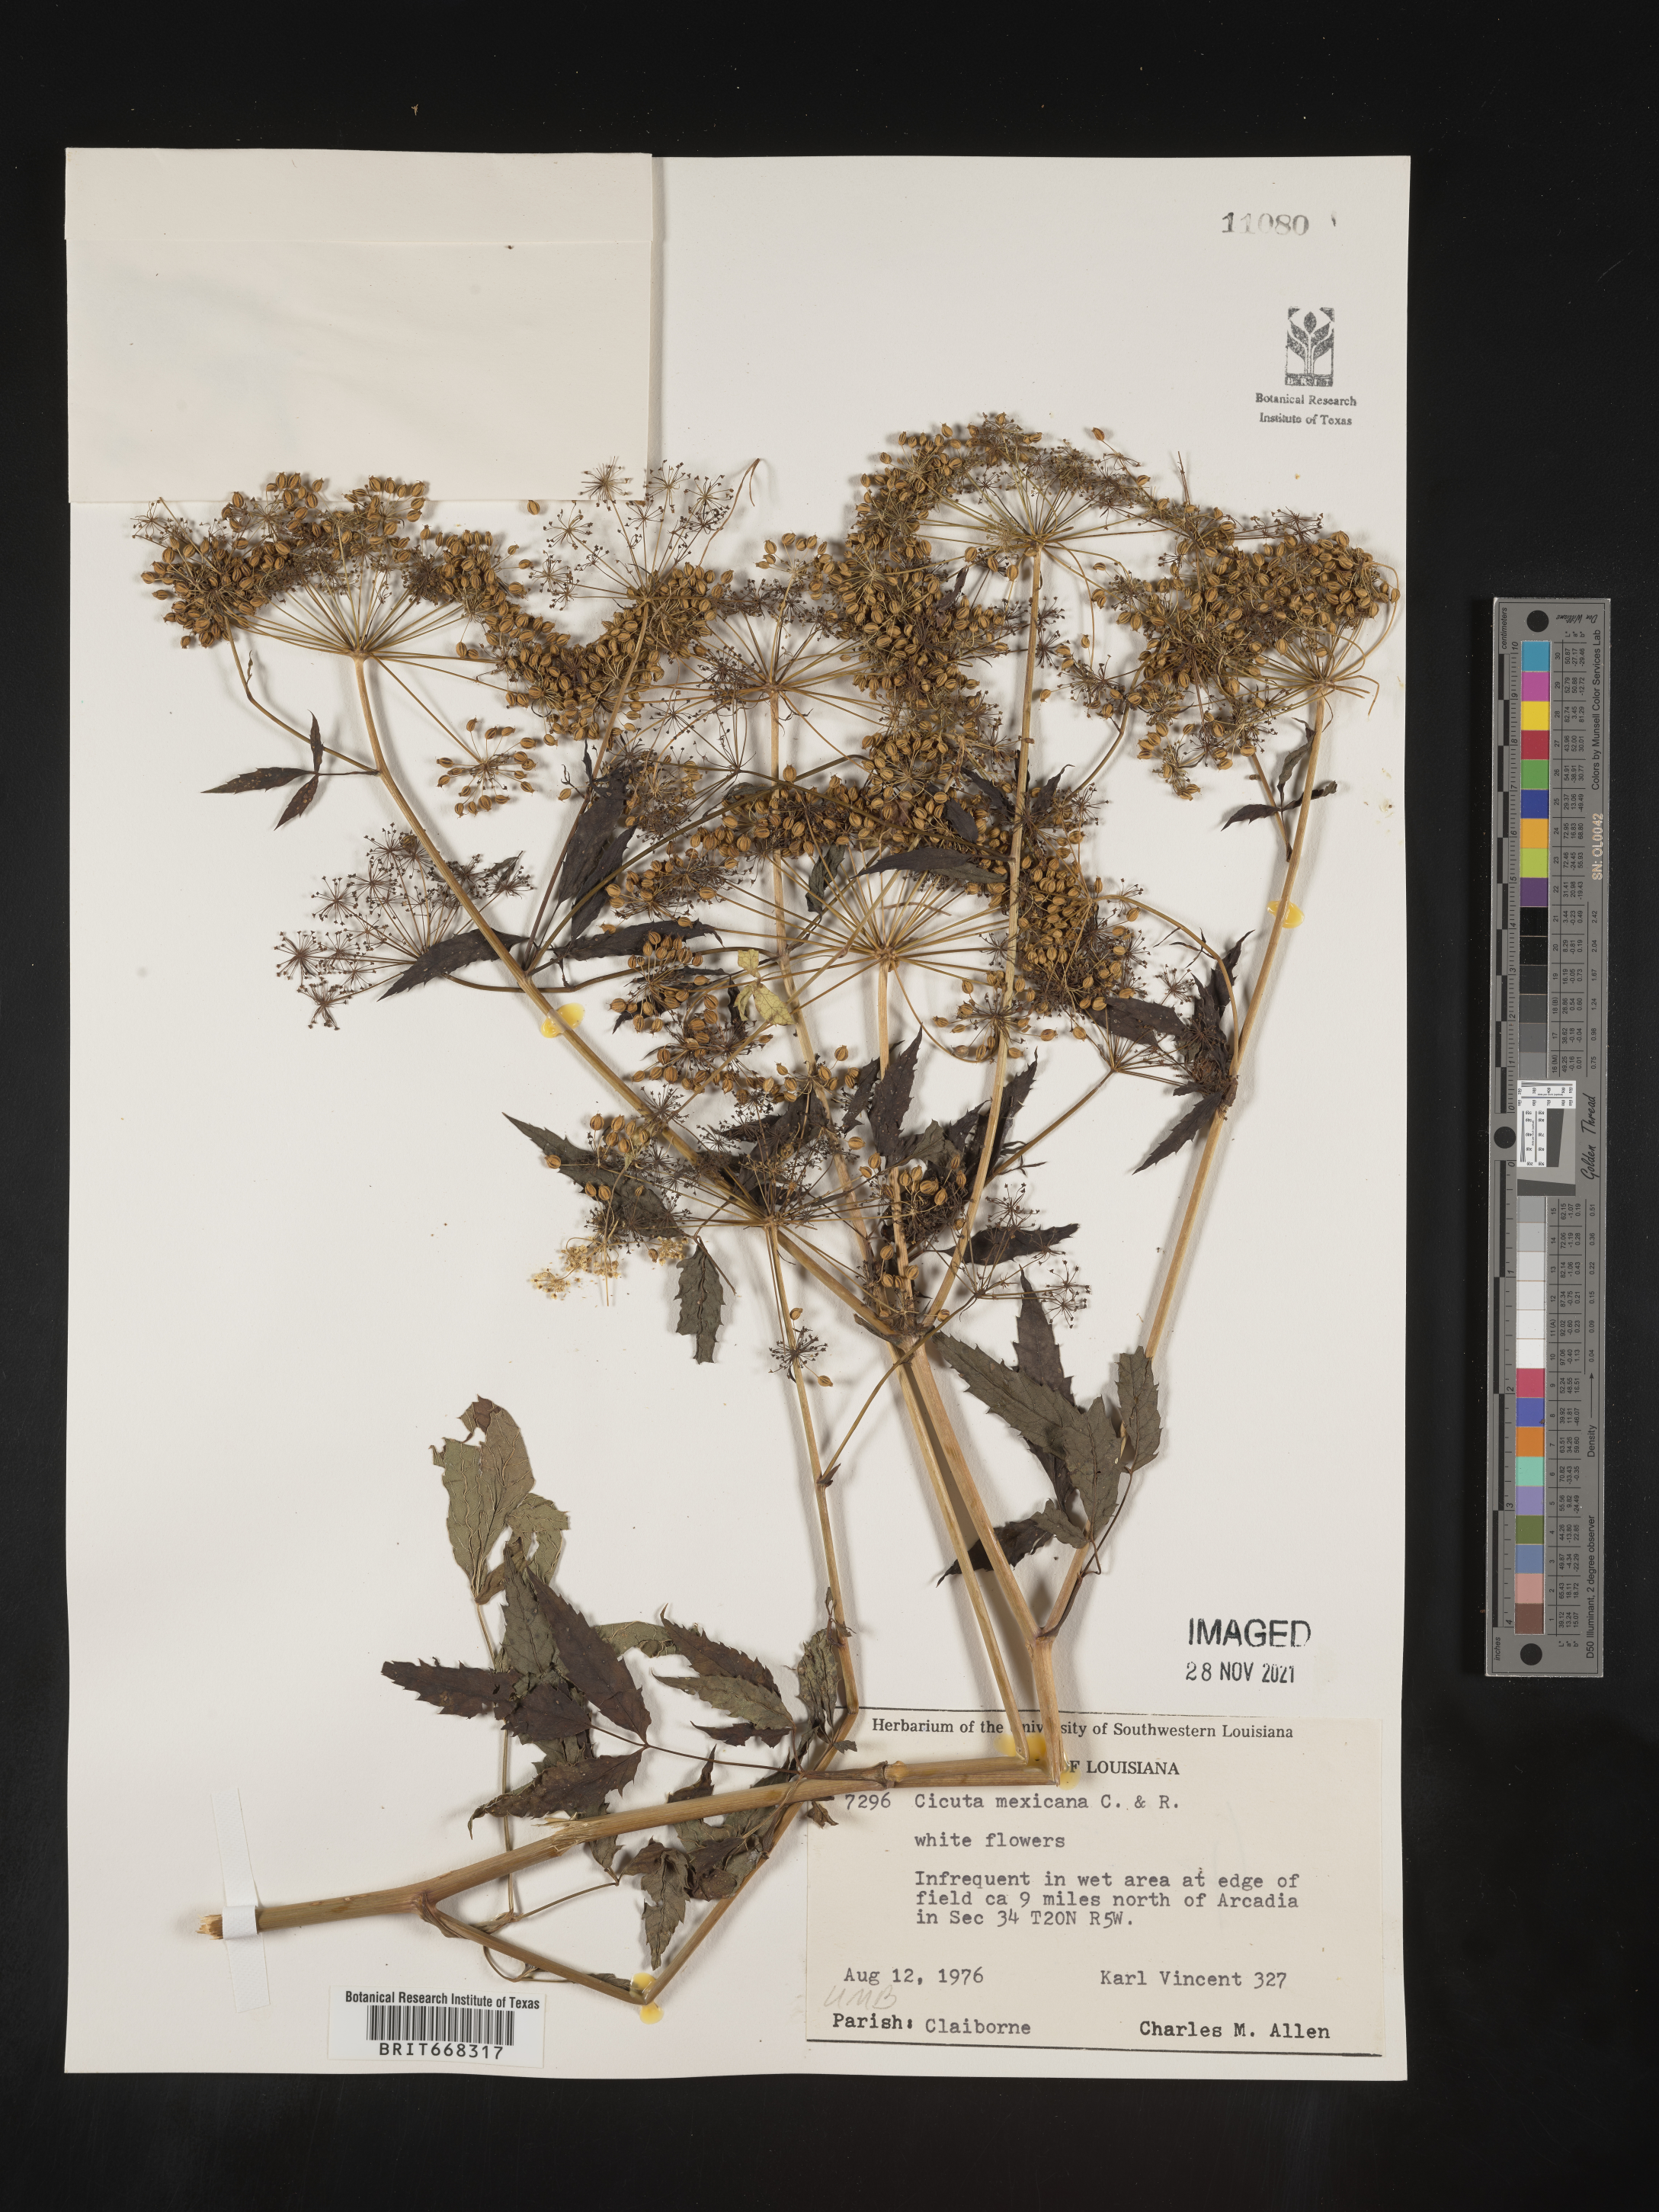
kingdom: Plantae
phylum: Tracheophyta
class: Magnoliopsida
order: Apiales
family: Apiaceae
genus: Cicuta
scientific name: Cicuta
